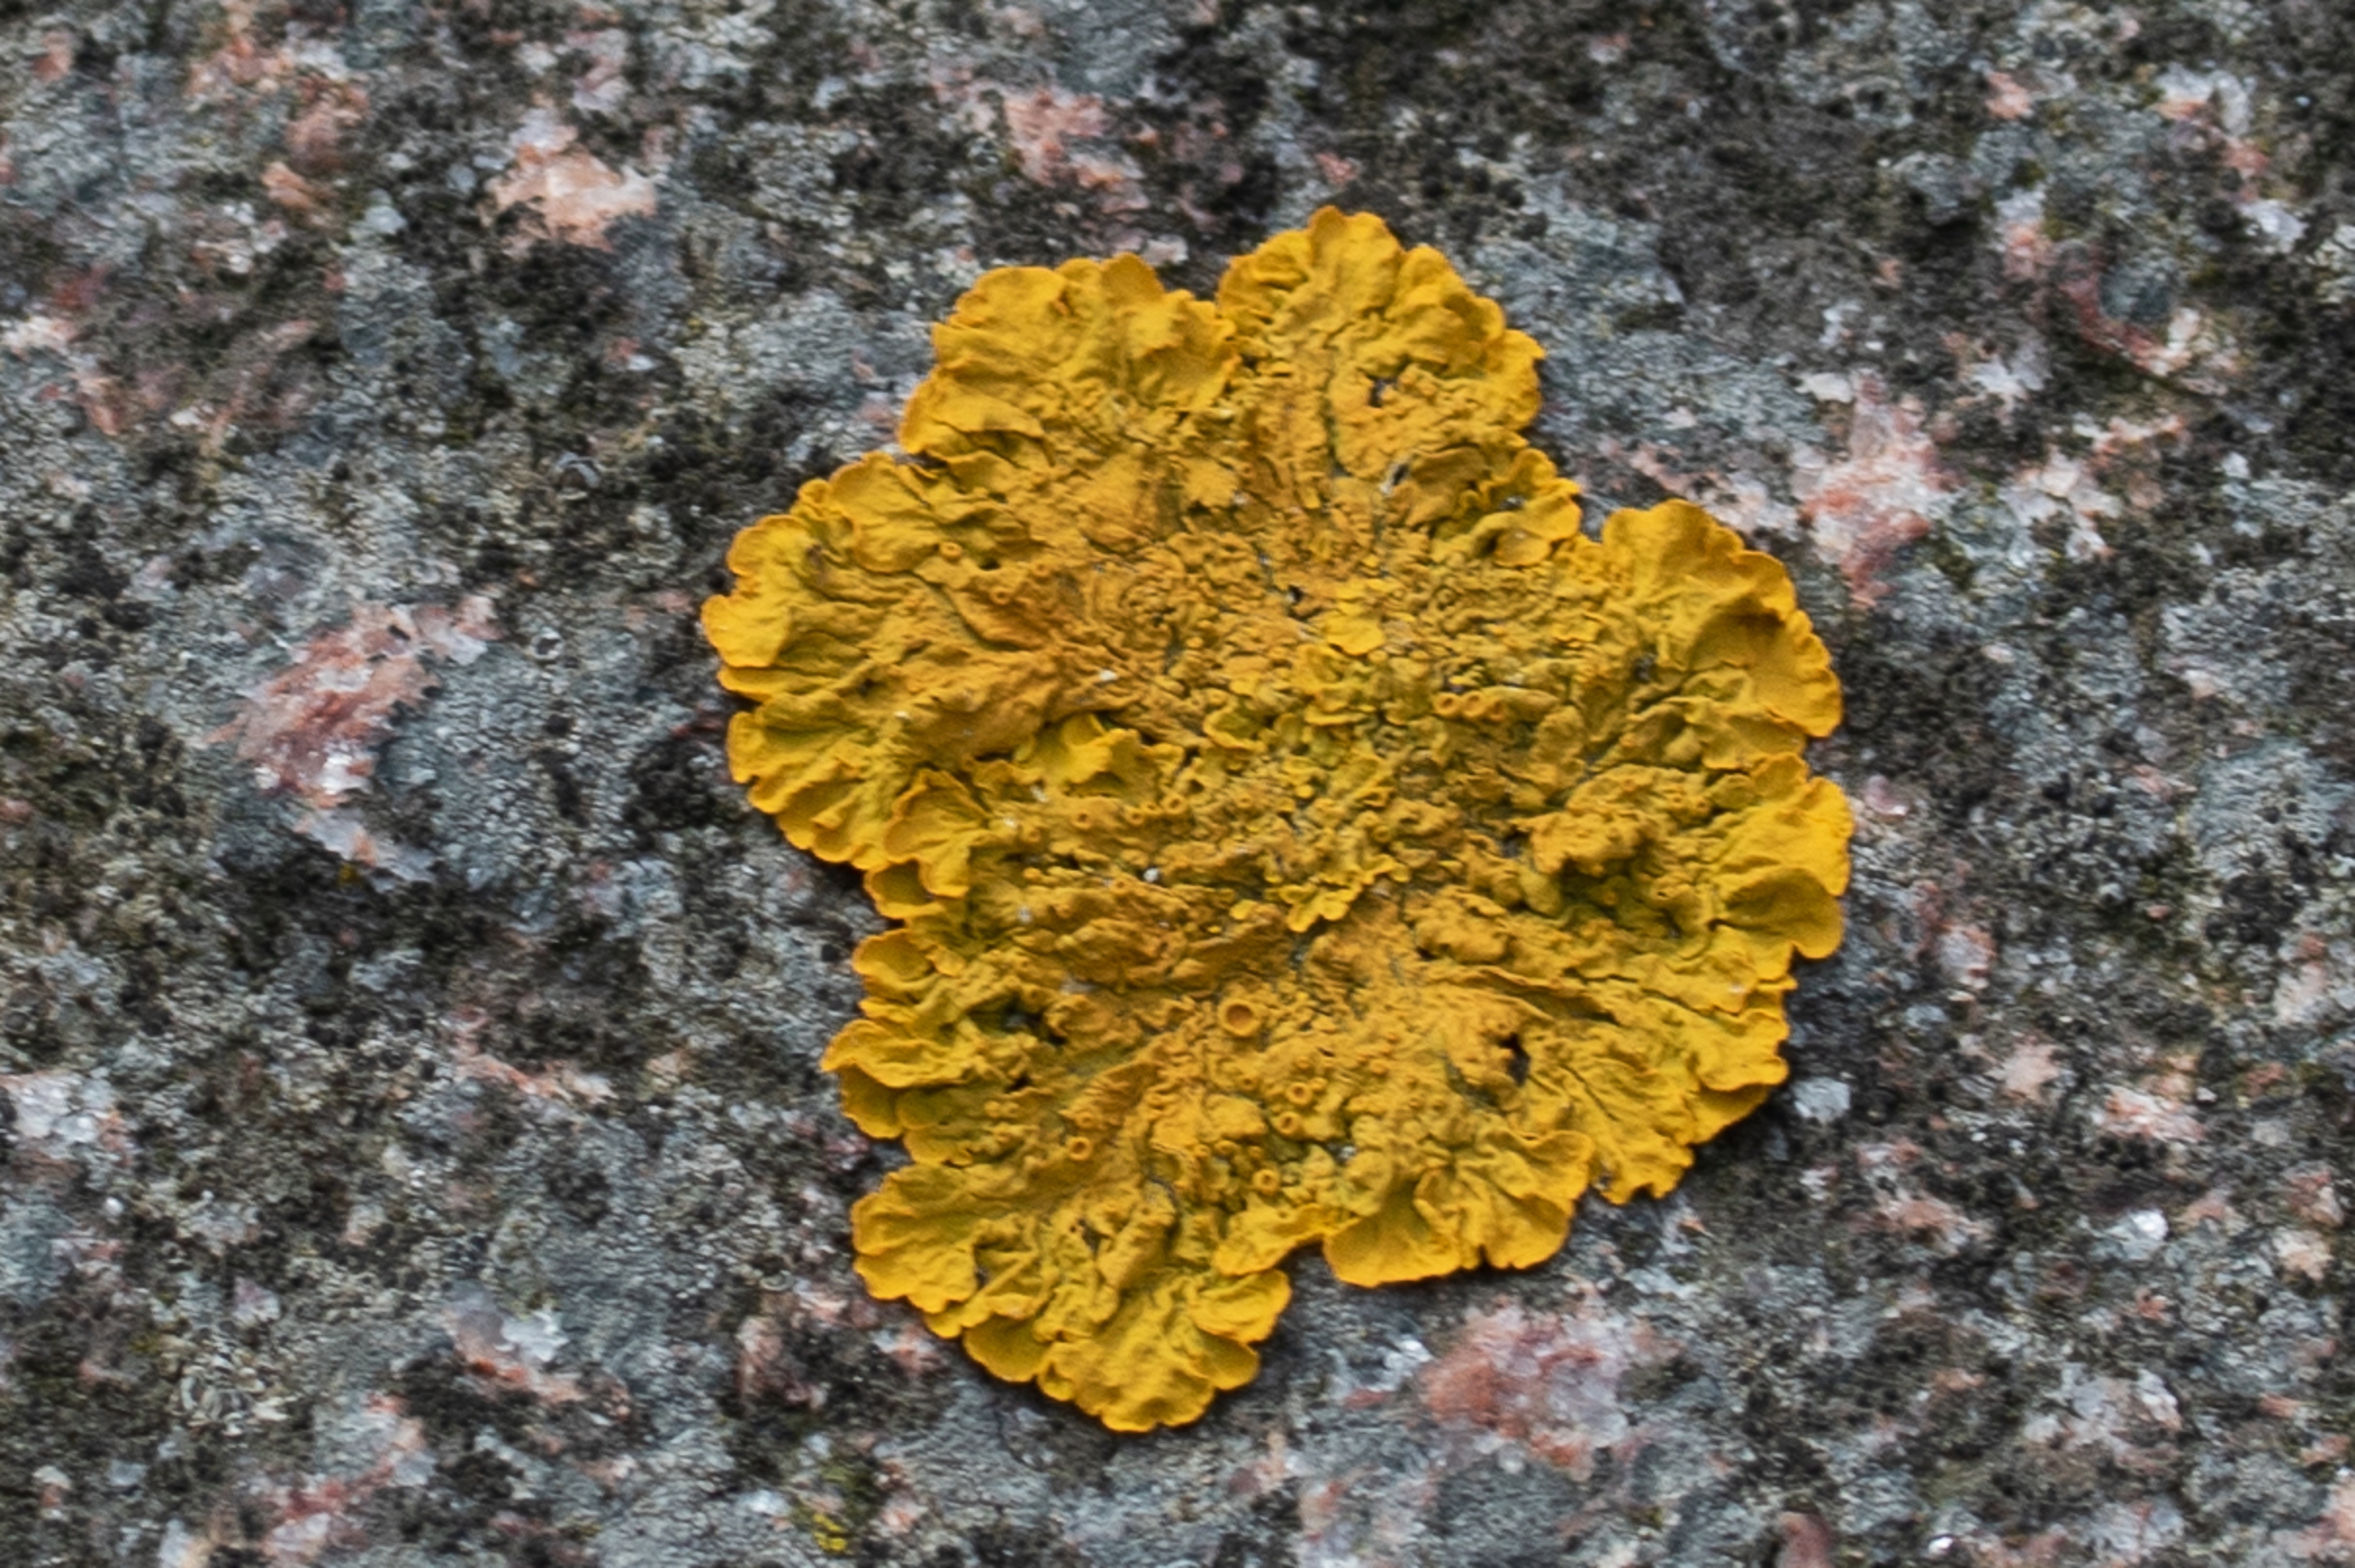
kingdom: Fungi
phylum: Ascomycota
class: Lecanoromycetes
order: Teloschistales
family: Teloschistaceae
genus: Xanthoria
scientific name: Xanthoria parietina
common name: Almindelig væggelav
